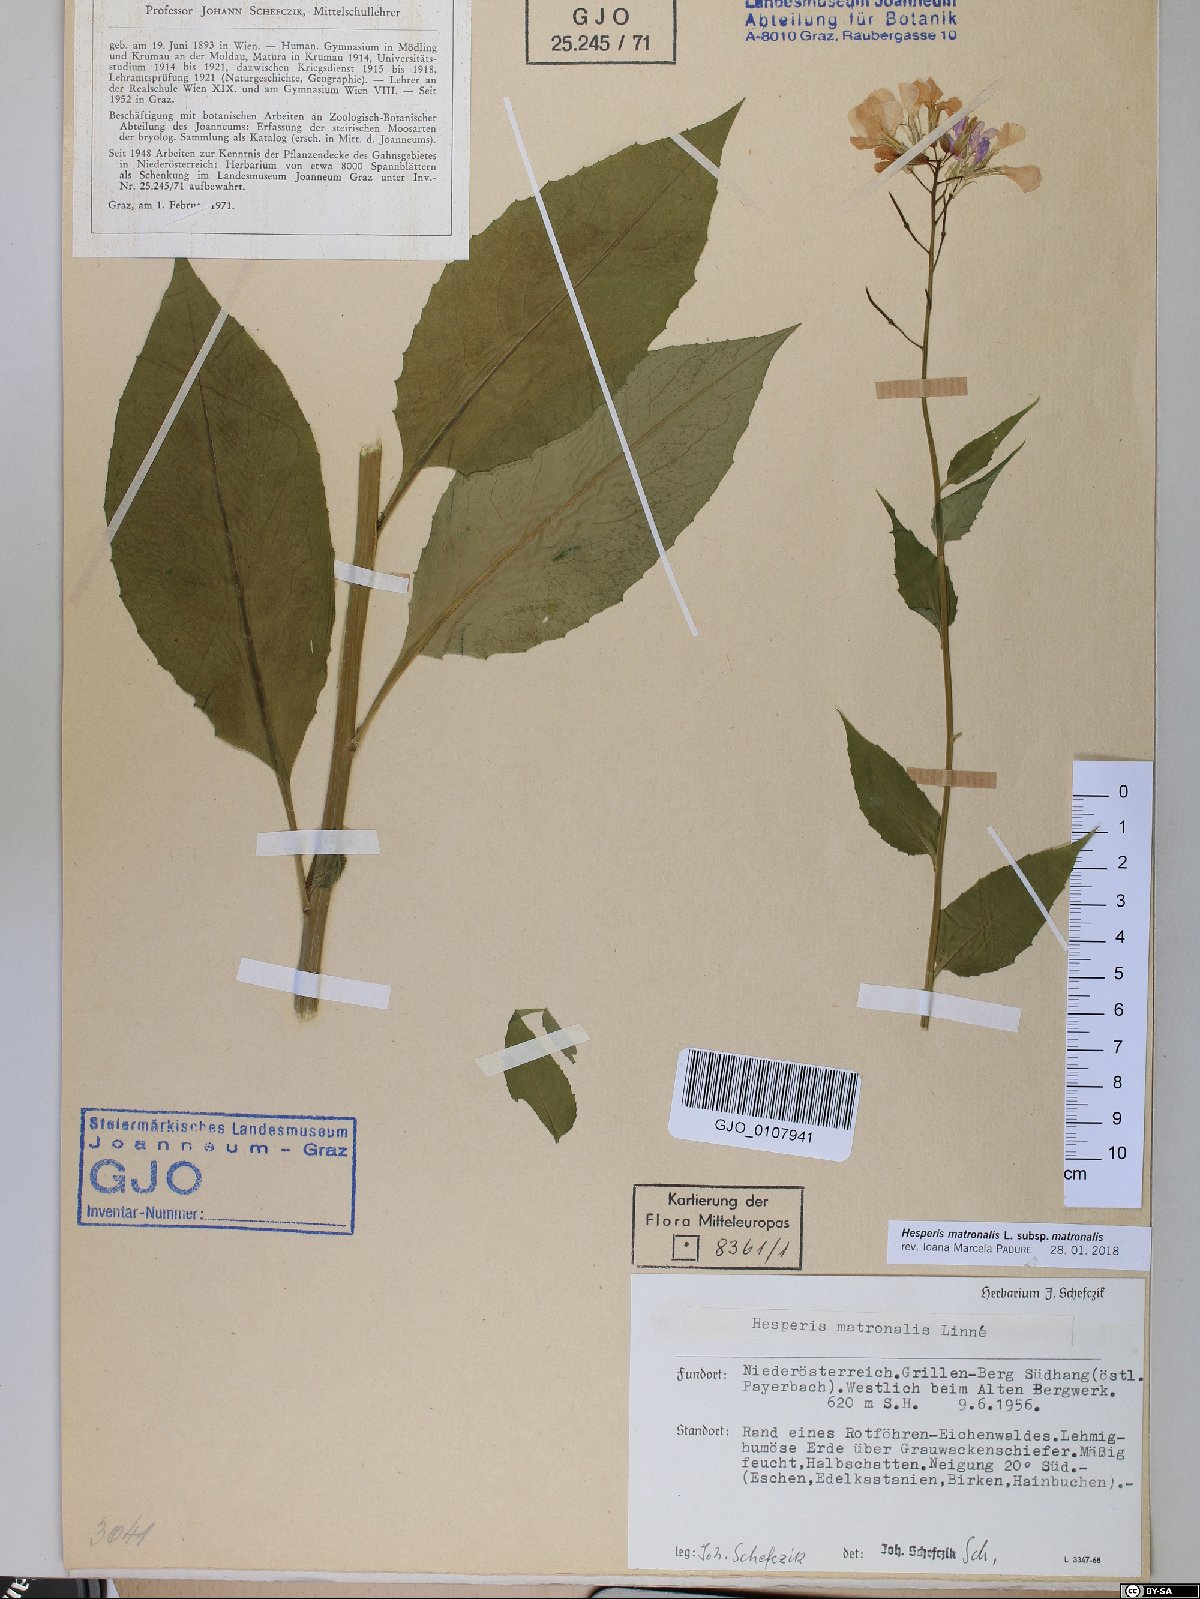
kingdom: Plantae
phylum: Tracheophyta
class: Magnoliopsida
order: Brassicales
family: Brassicaceae
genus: Hesperis
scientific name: Hesperis matronalis
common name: Dame's-violet
